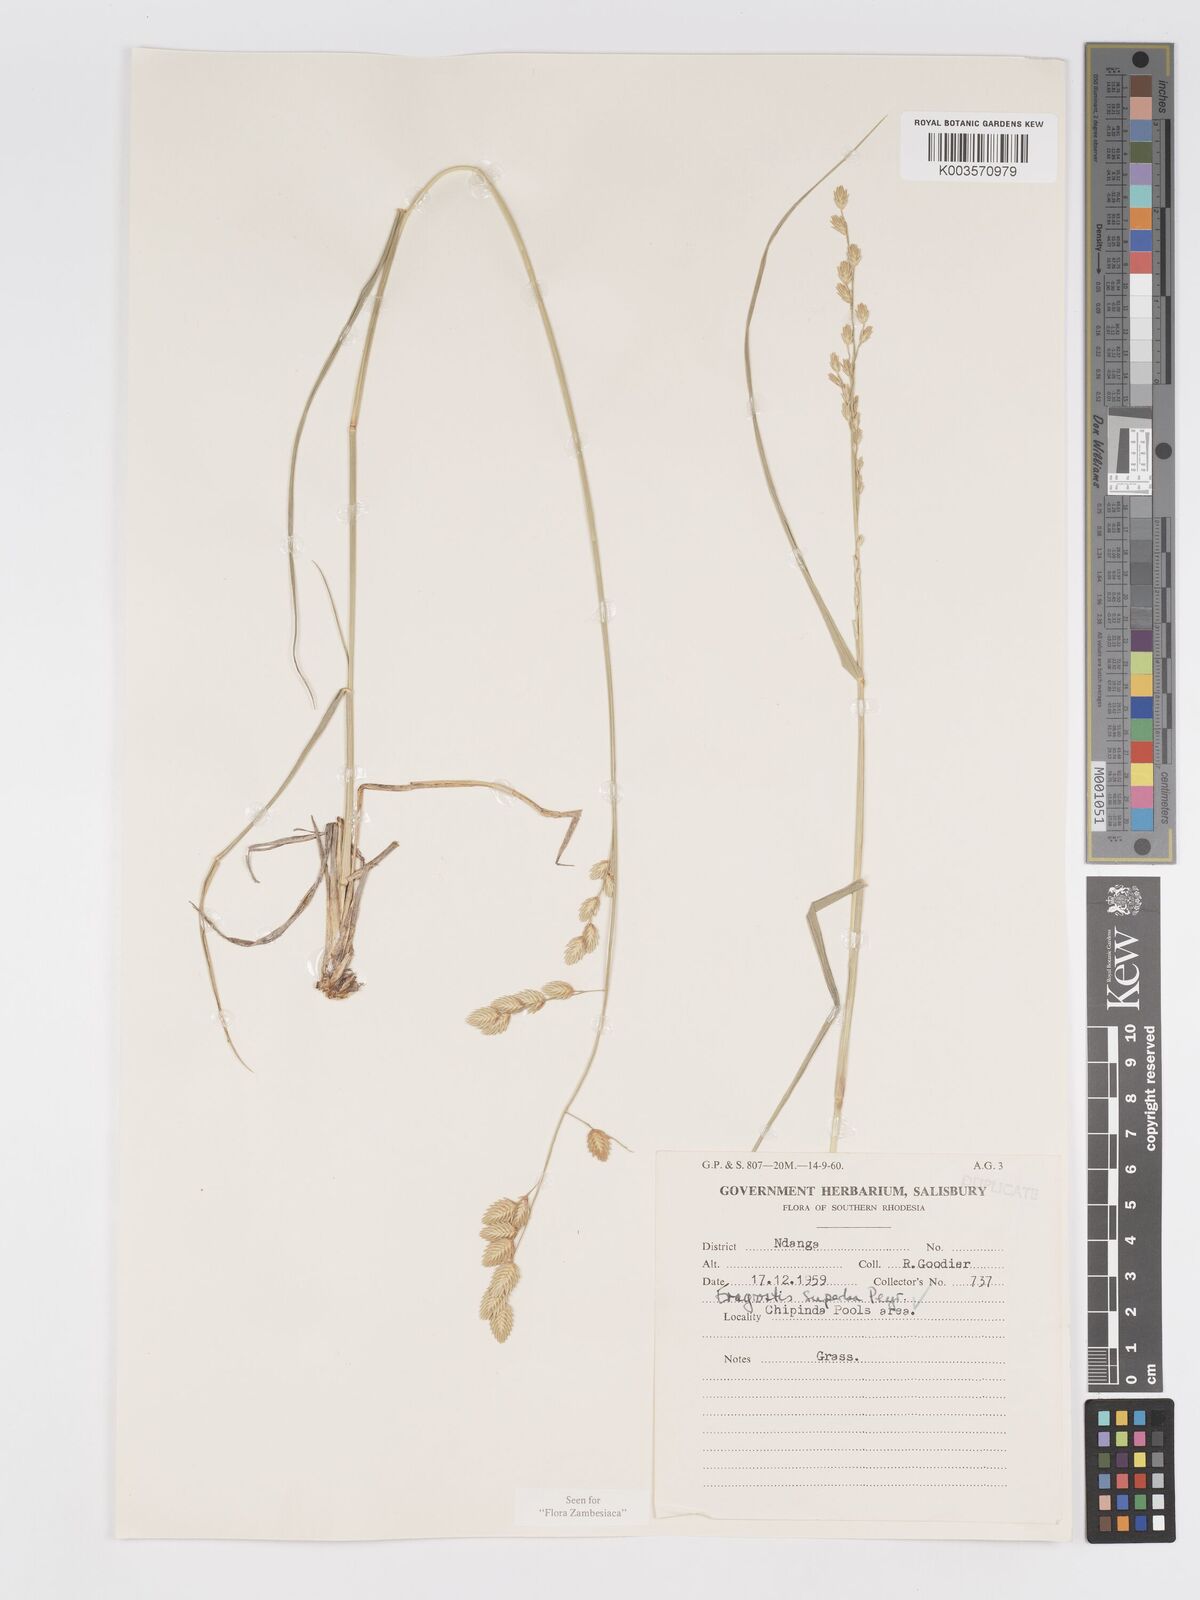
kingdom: Plantae
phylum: Tracheophyta
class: Liliopsida
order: Poales
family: Poaceae
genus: Eragrostis
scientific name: Eragrostis superba
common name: Wilman lovegrass
